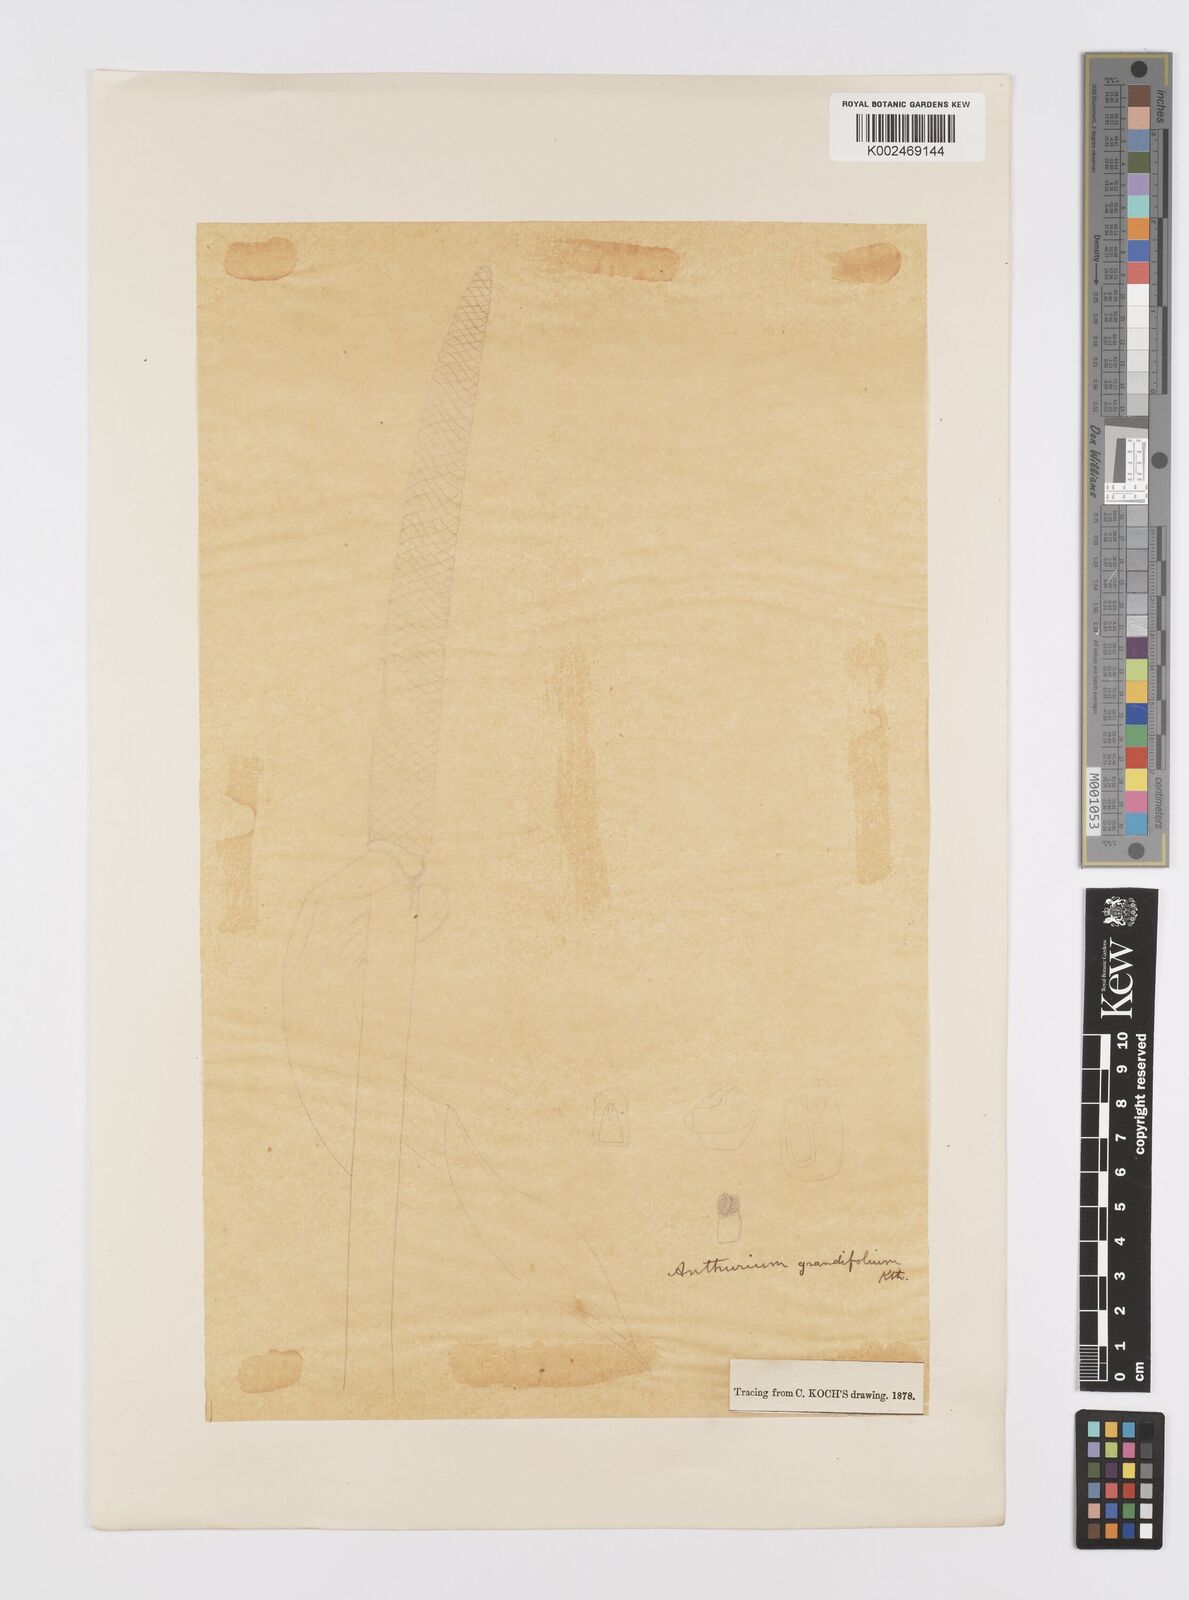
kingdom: Plantae
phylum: Tracheophyta
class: Liliopsida
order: Alismatales
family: Araceae
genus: Anthurium
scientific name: Anthurium grandifolium
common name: Monkey tail
